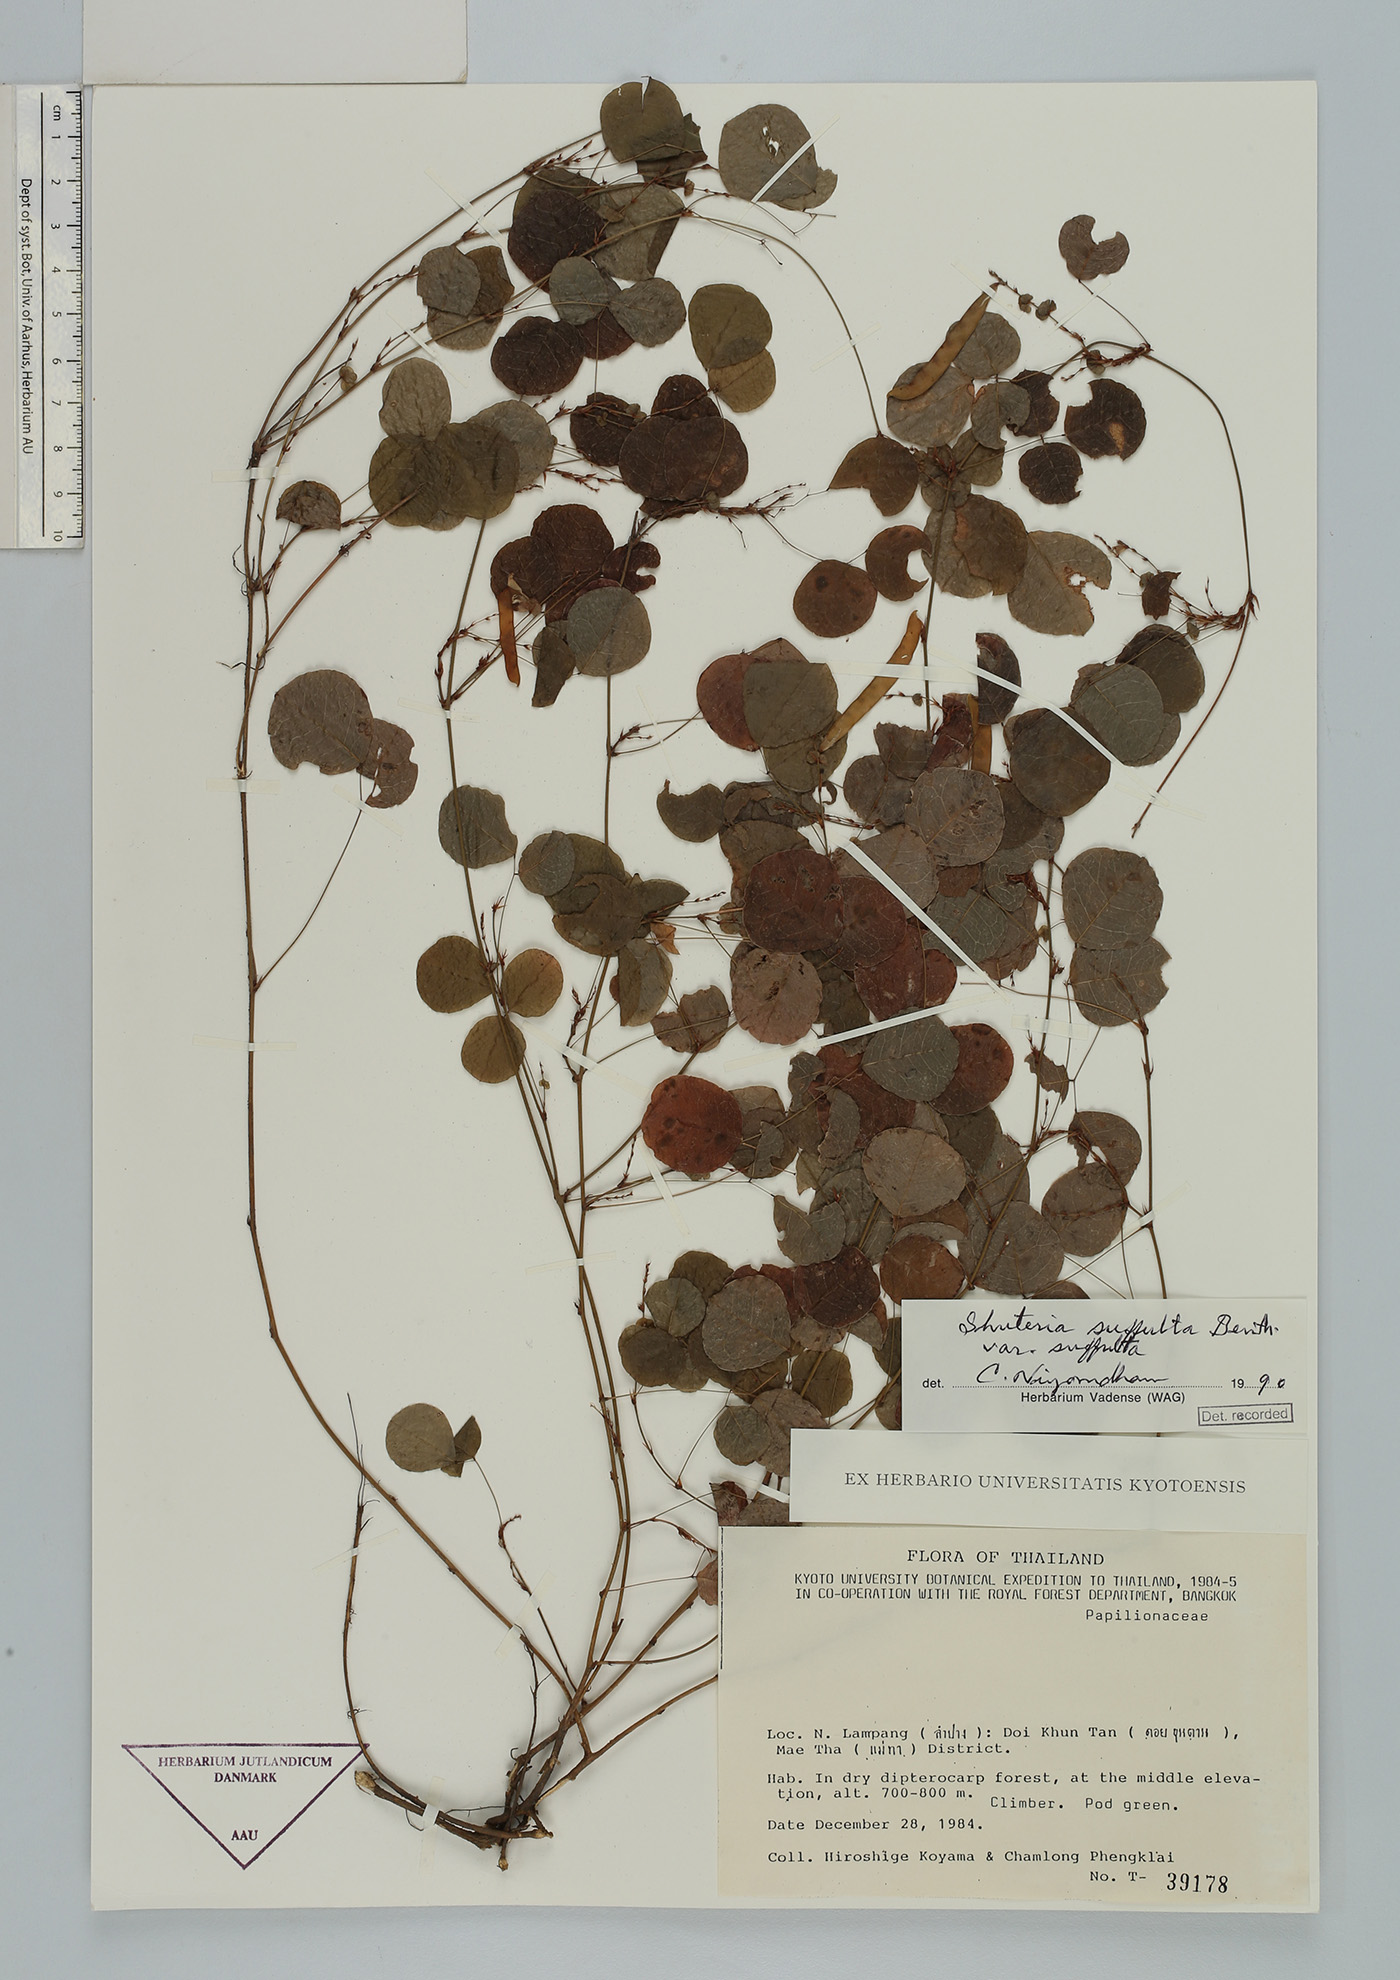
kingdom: Plantae
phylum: Tracheophyta
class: Magnoliopsida
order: Fabales
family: Fabaceae
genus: Shuteria
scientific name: Shuteria suffulta
